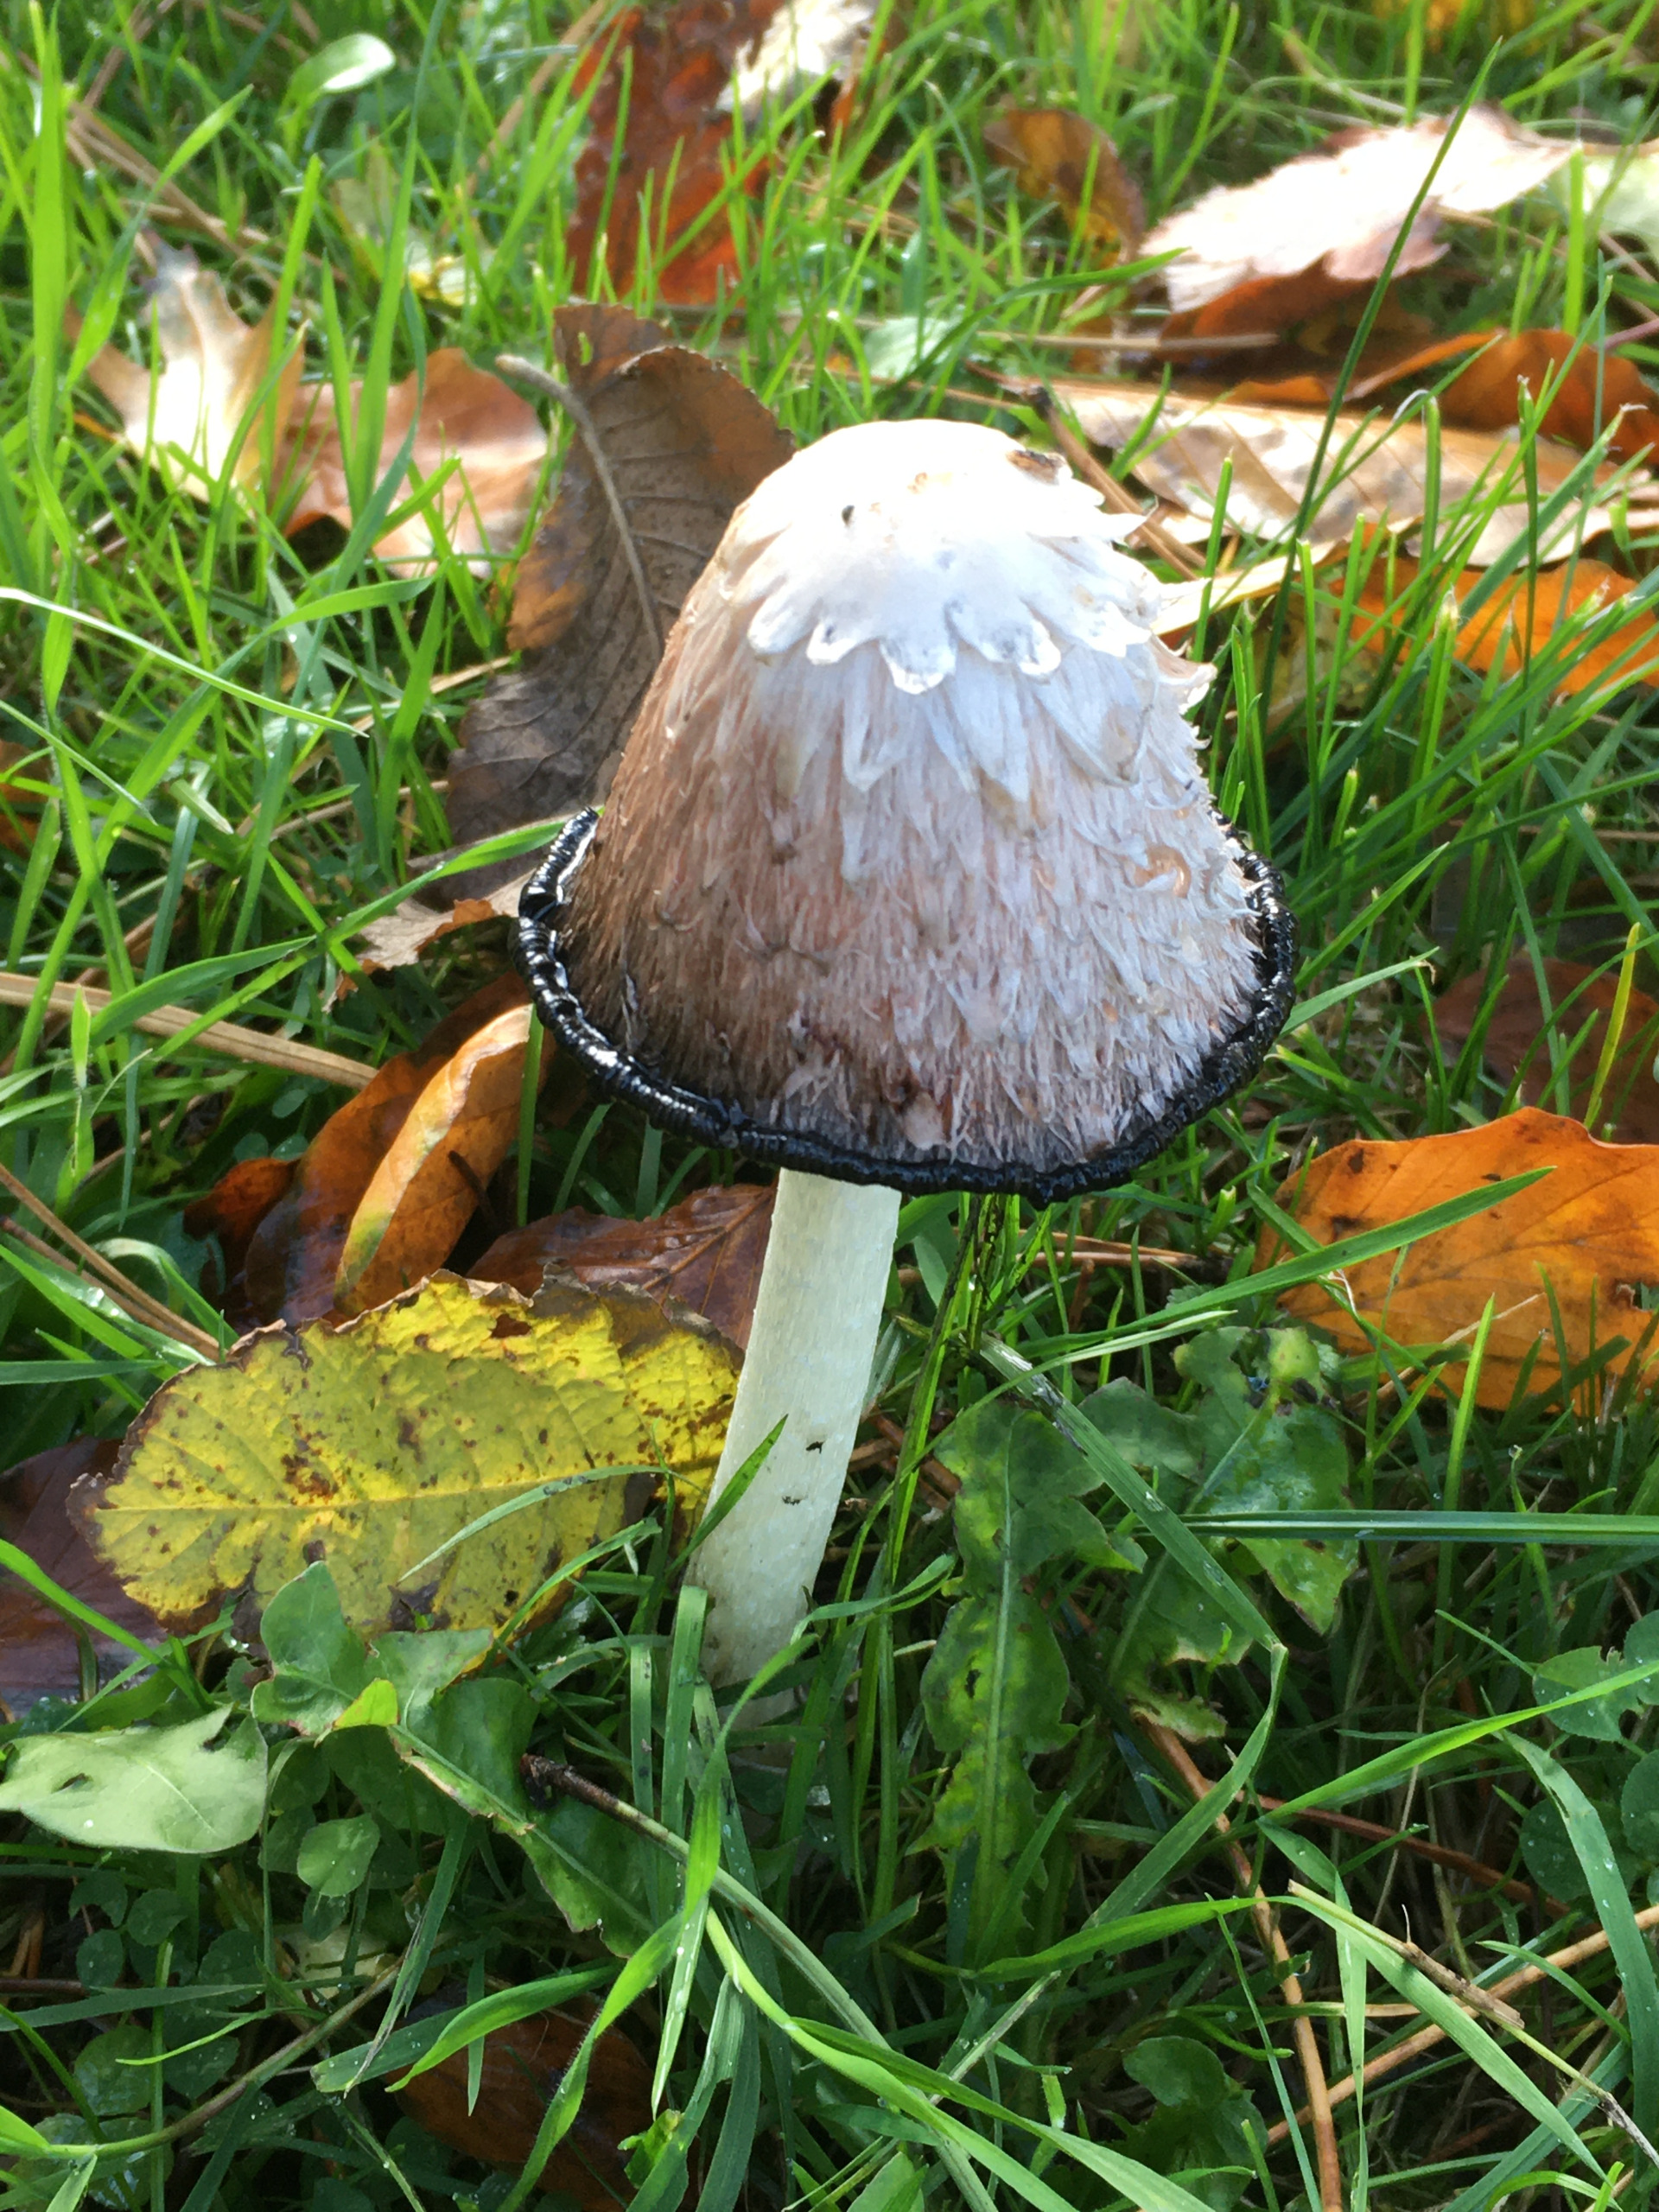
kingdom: Fungi
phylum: Basidiomycota
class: Agaricomycetes
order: Agaricales
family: Agaricaceae
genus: Coprinus
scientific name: Coprinus comatus
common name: Stor parykhat
